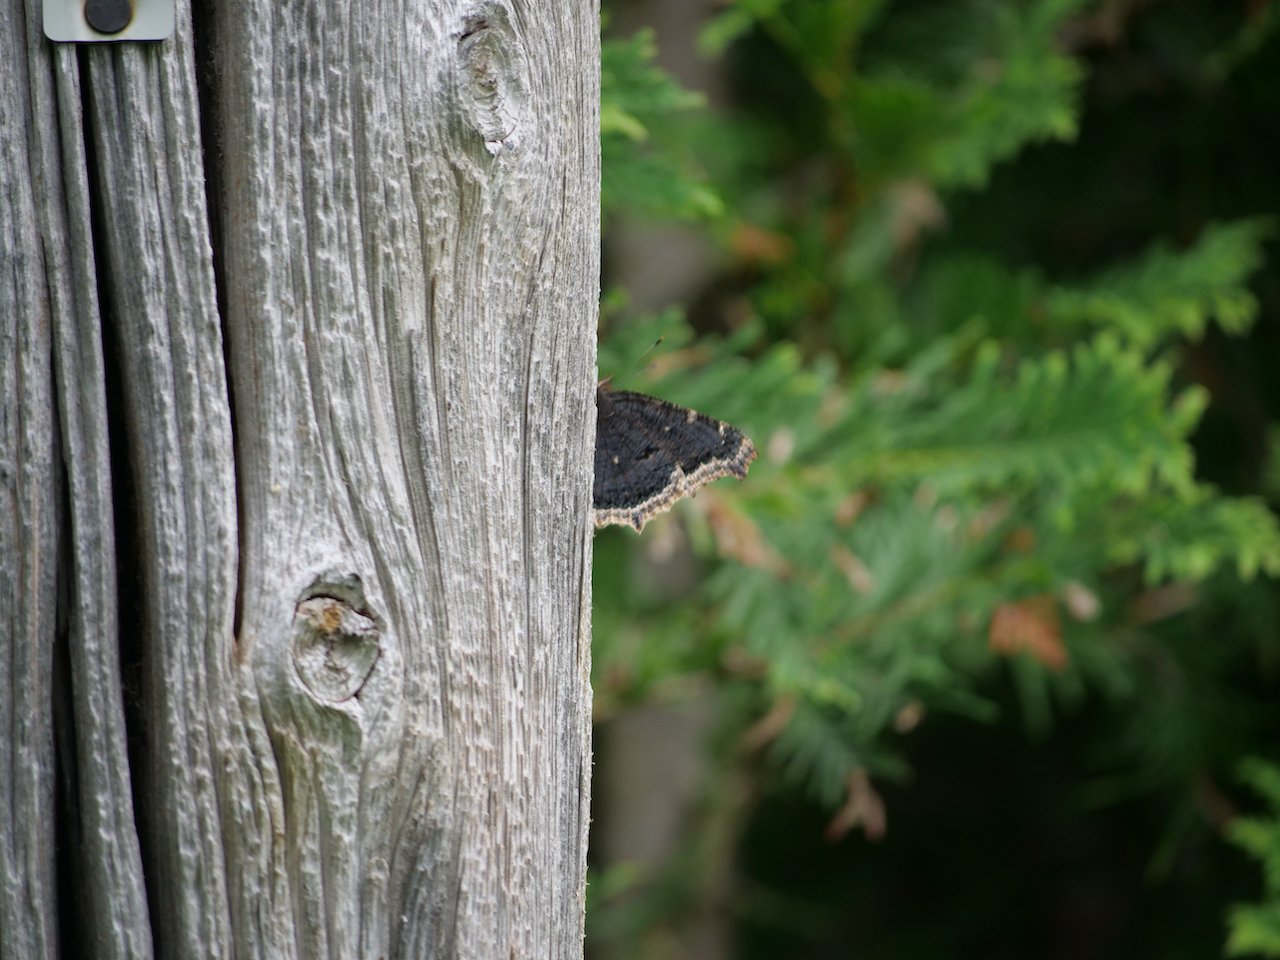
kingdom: Animalia
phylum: Arthropoda
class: Insecta
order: Lepidoptera
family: Nymphalidae
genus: Nymphalis
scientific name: Nymphalis antiopa
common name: Mourning Cloak
